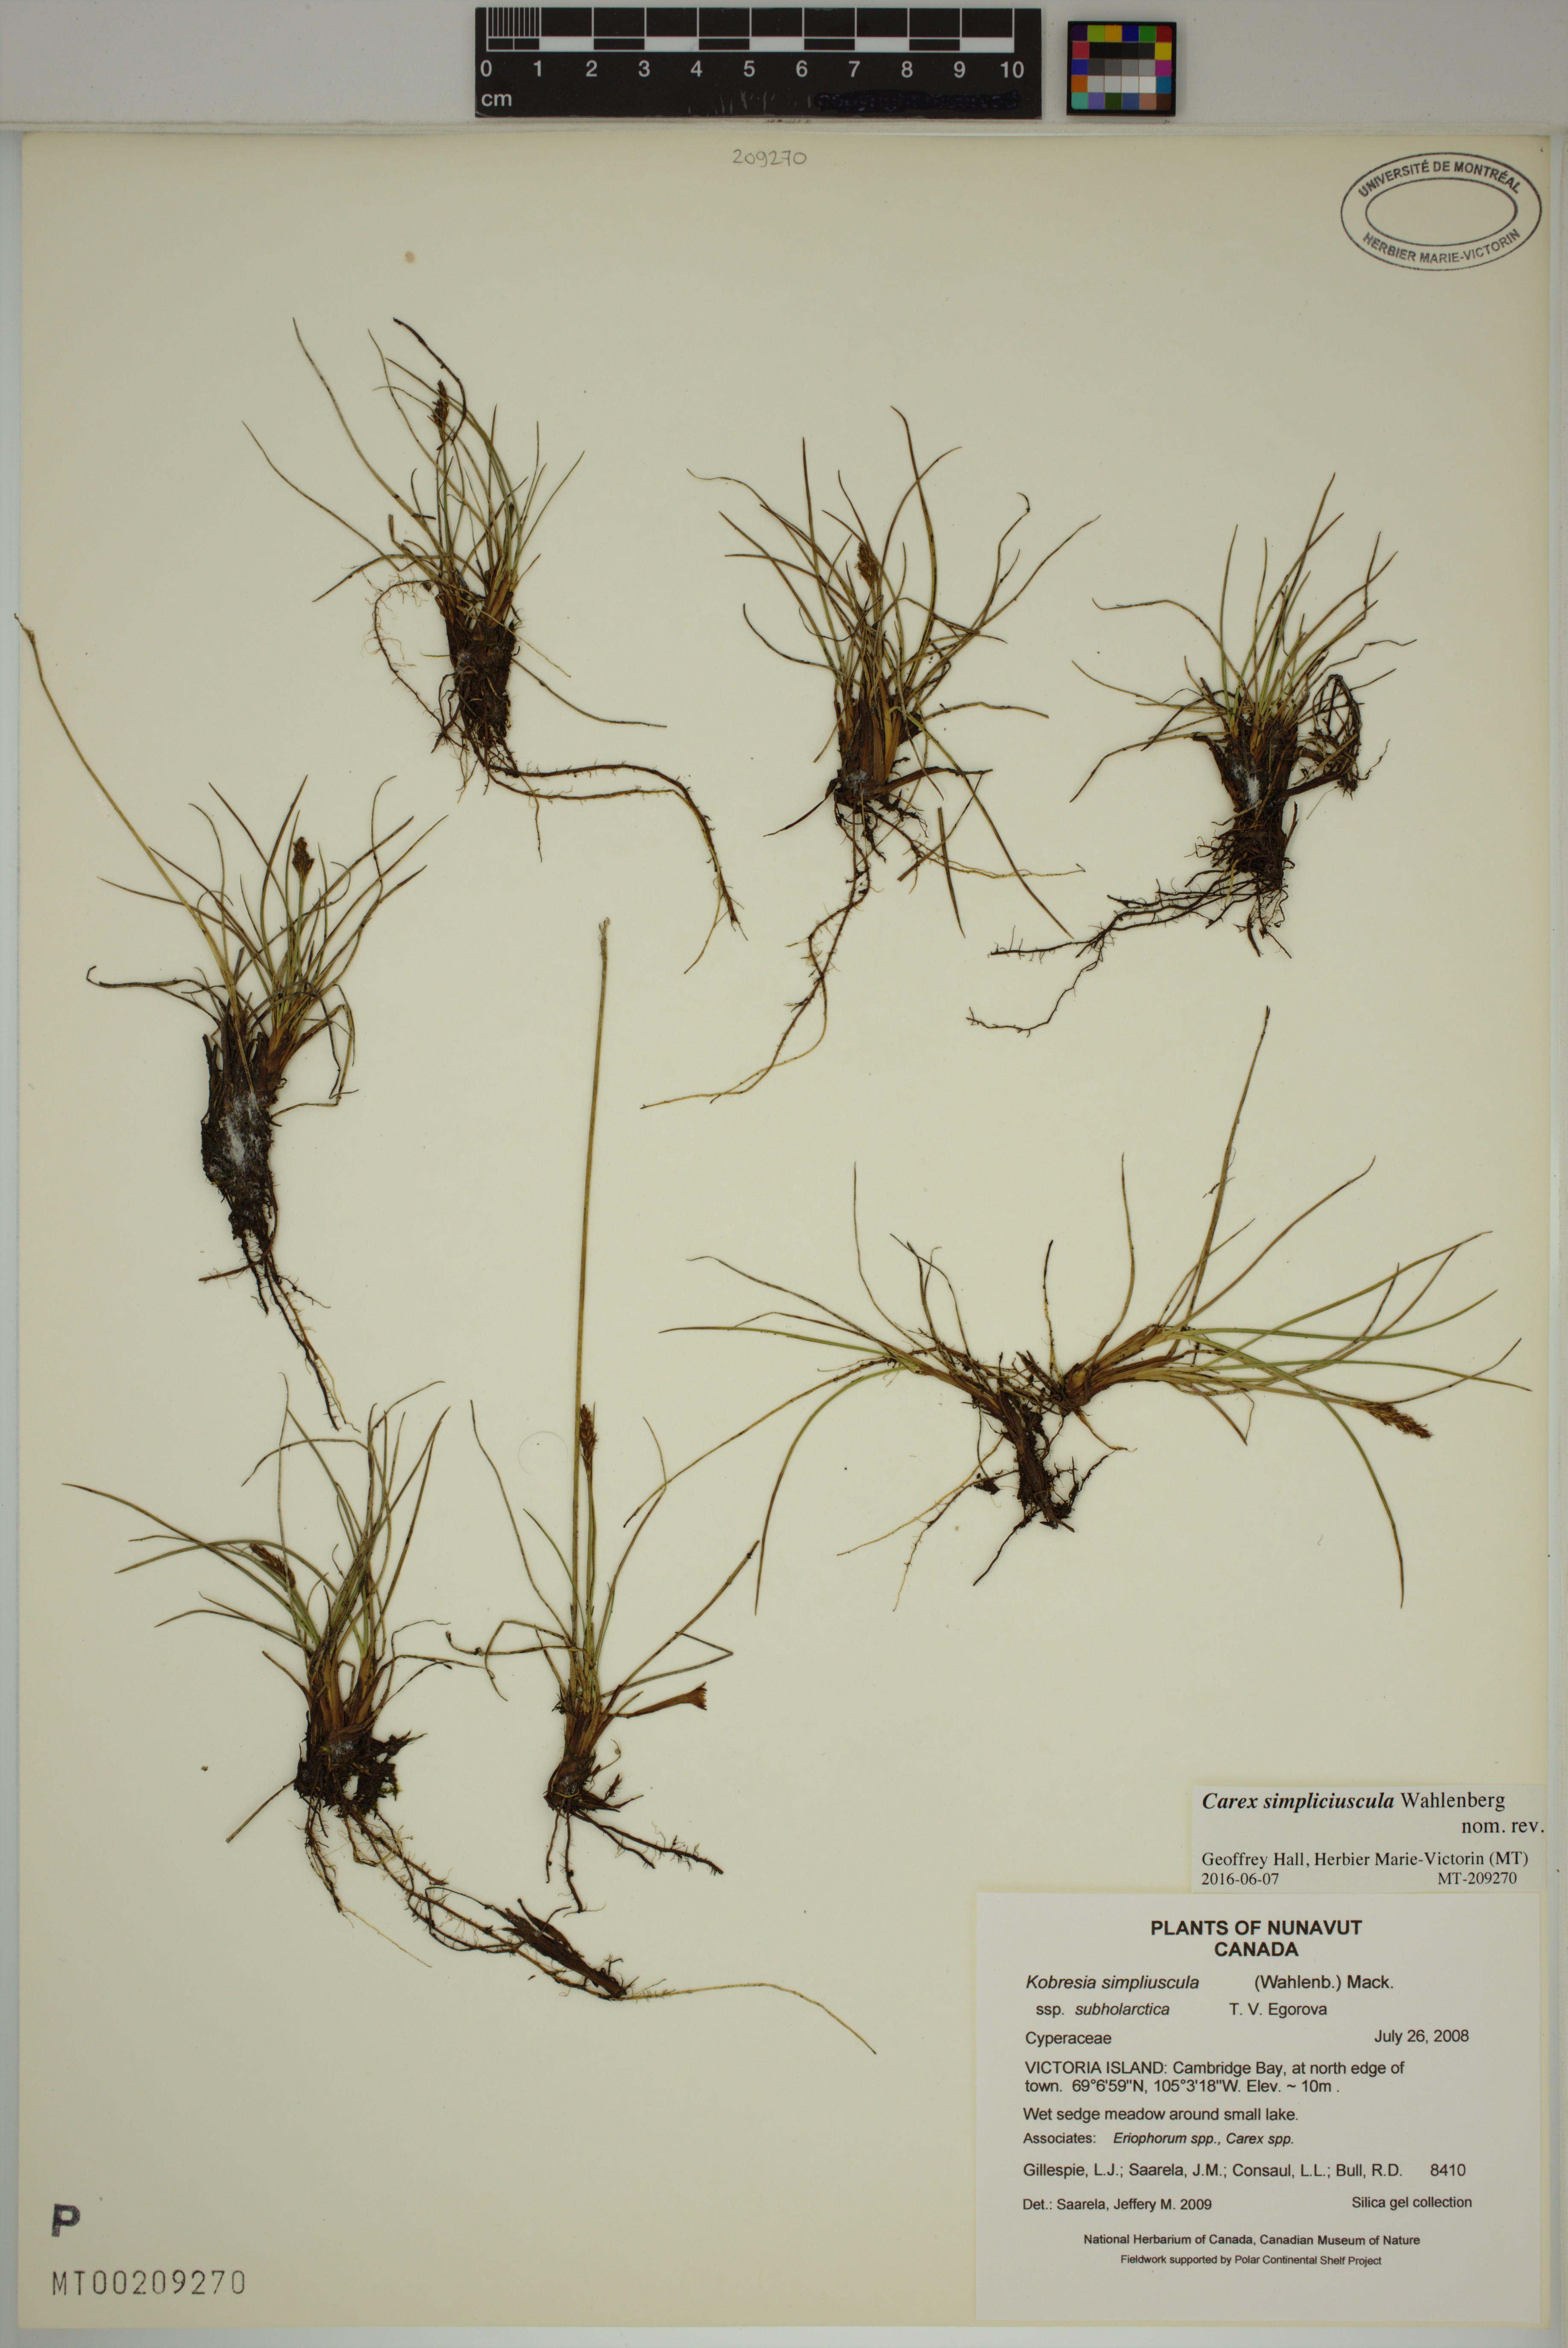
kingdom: Plantae
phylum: Tracheophyta
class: Liliopsida
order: Poales
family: Cyperaceae
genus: Carex
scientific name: Carex simpliciuscula
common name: Simple bog sedge
